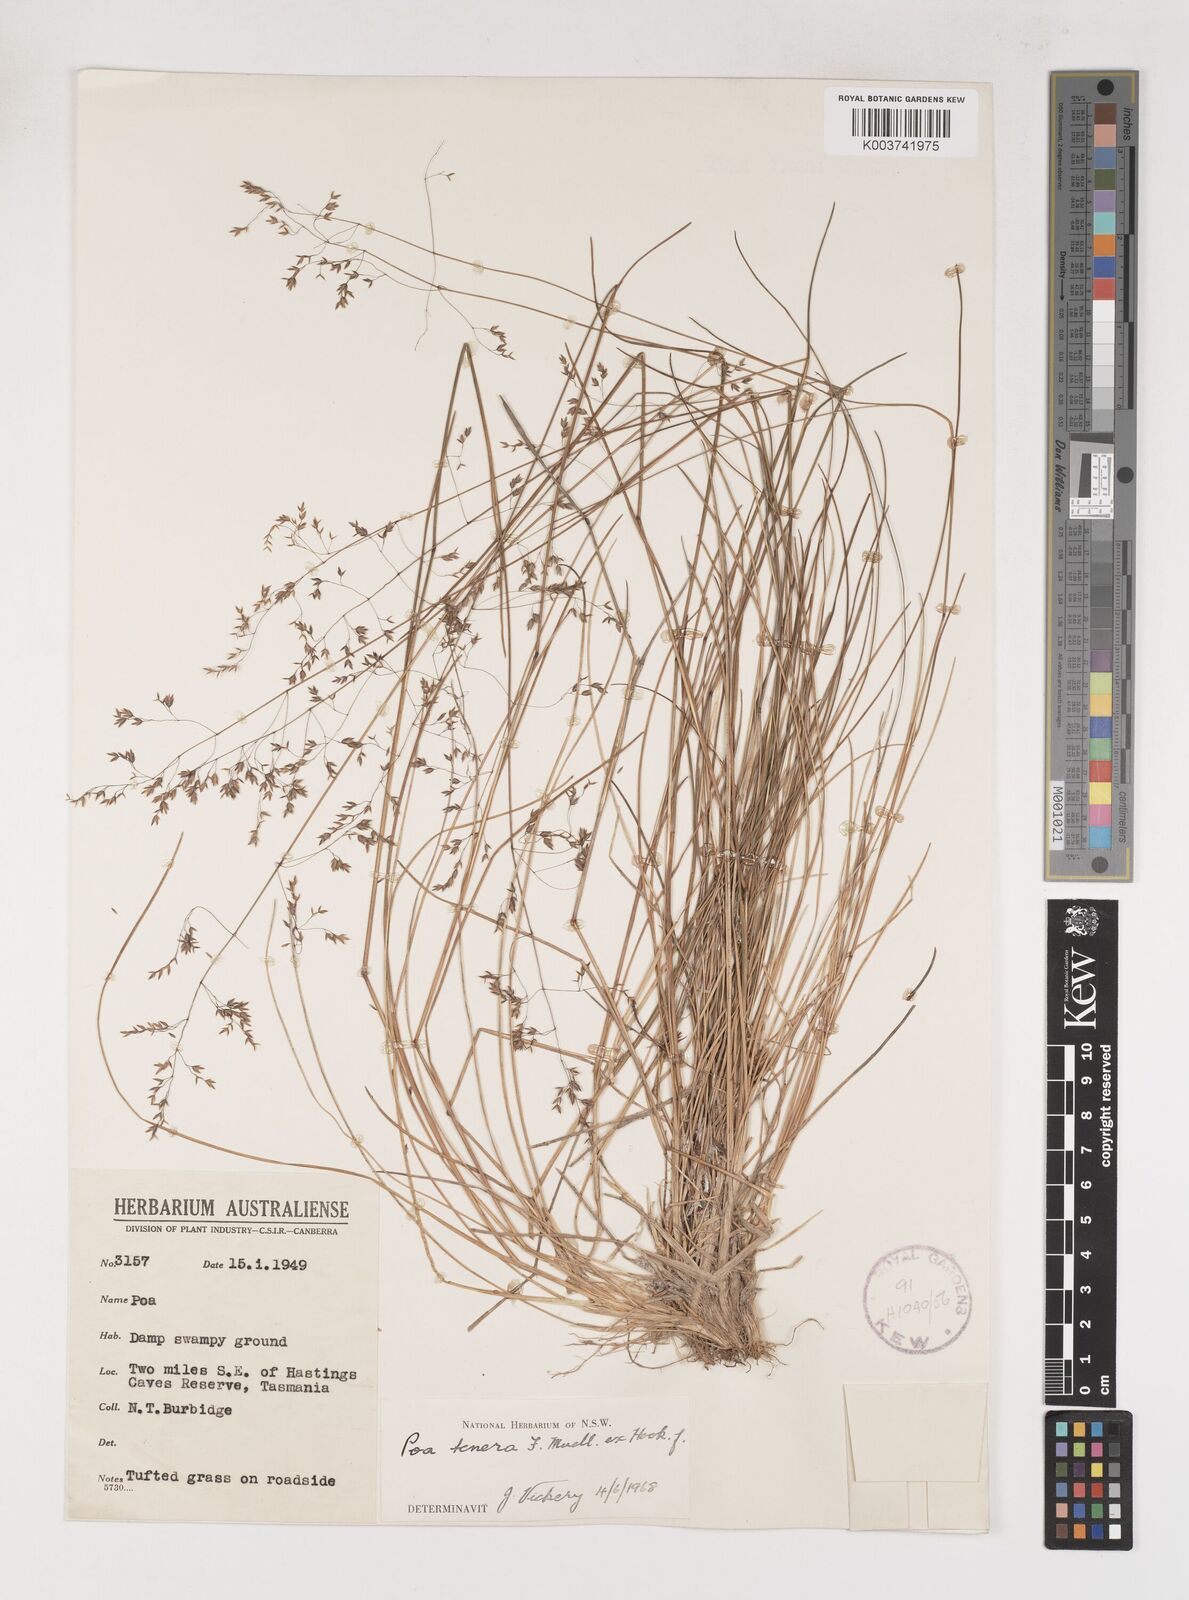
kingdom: Plantae
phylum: Tracheophyta
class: Liliopsida
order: Poales
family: Poaceae
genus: Poa
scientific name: Poa tenera
